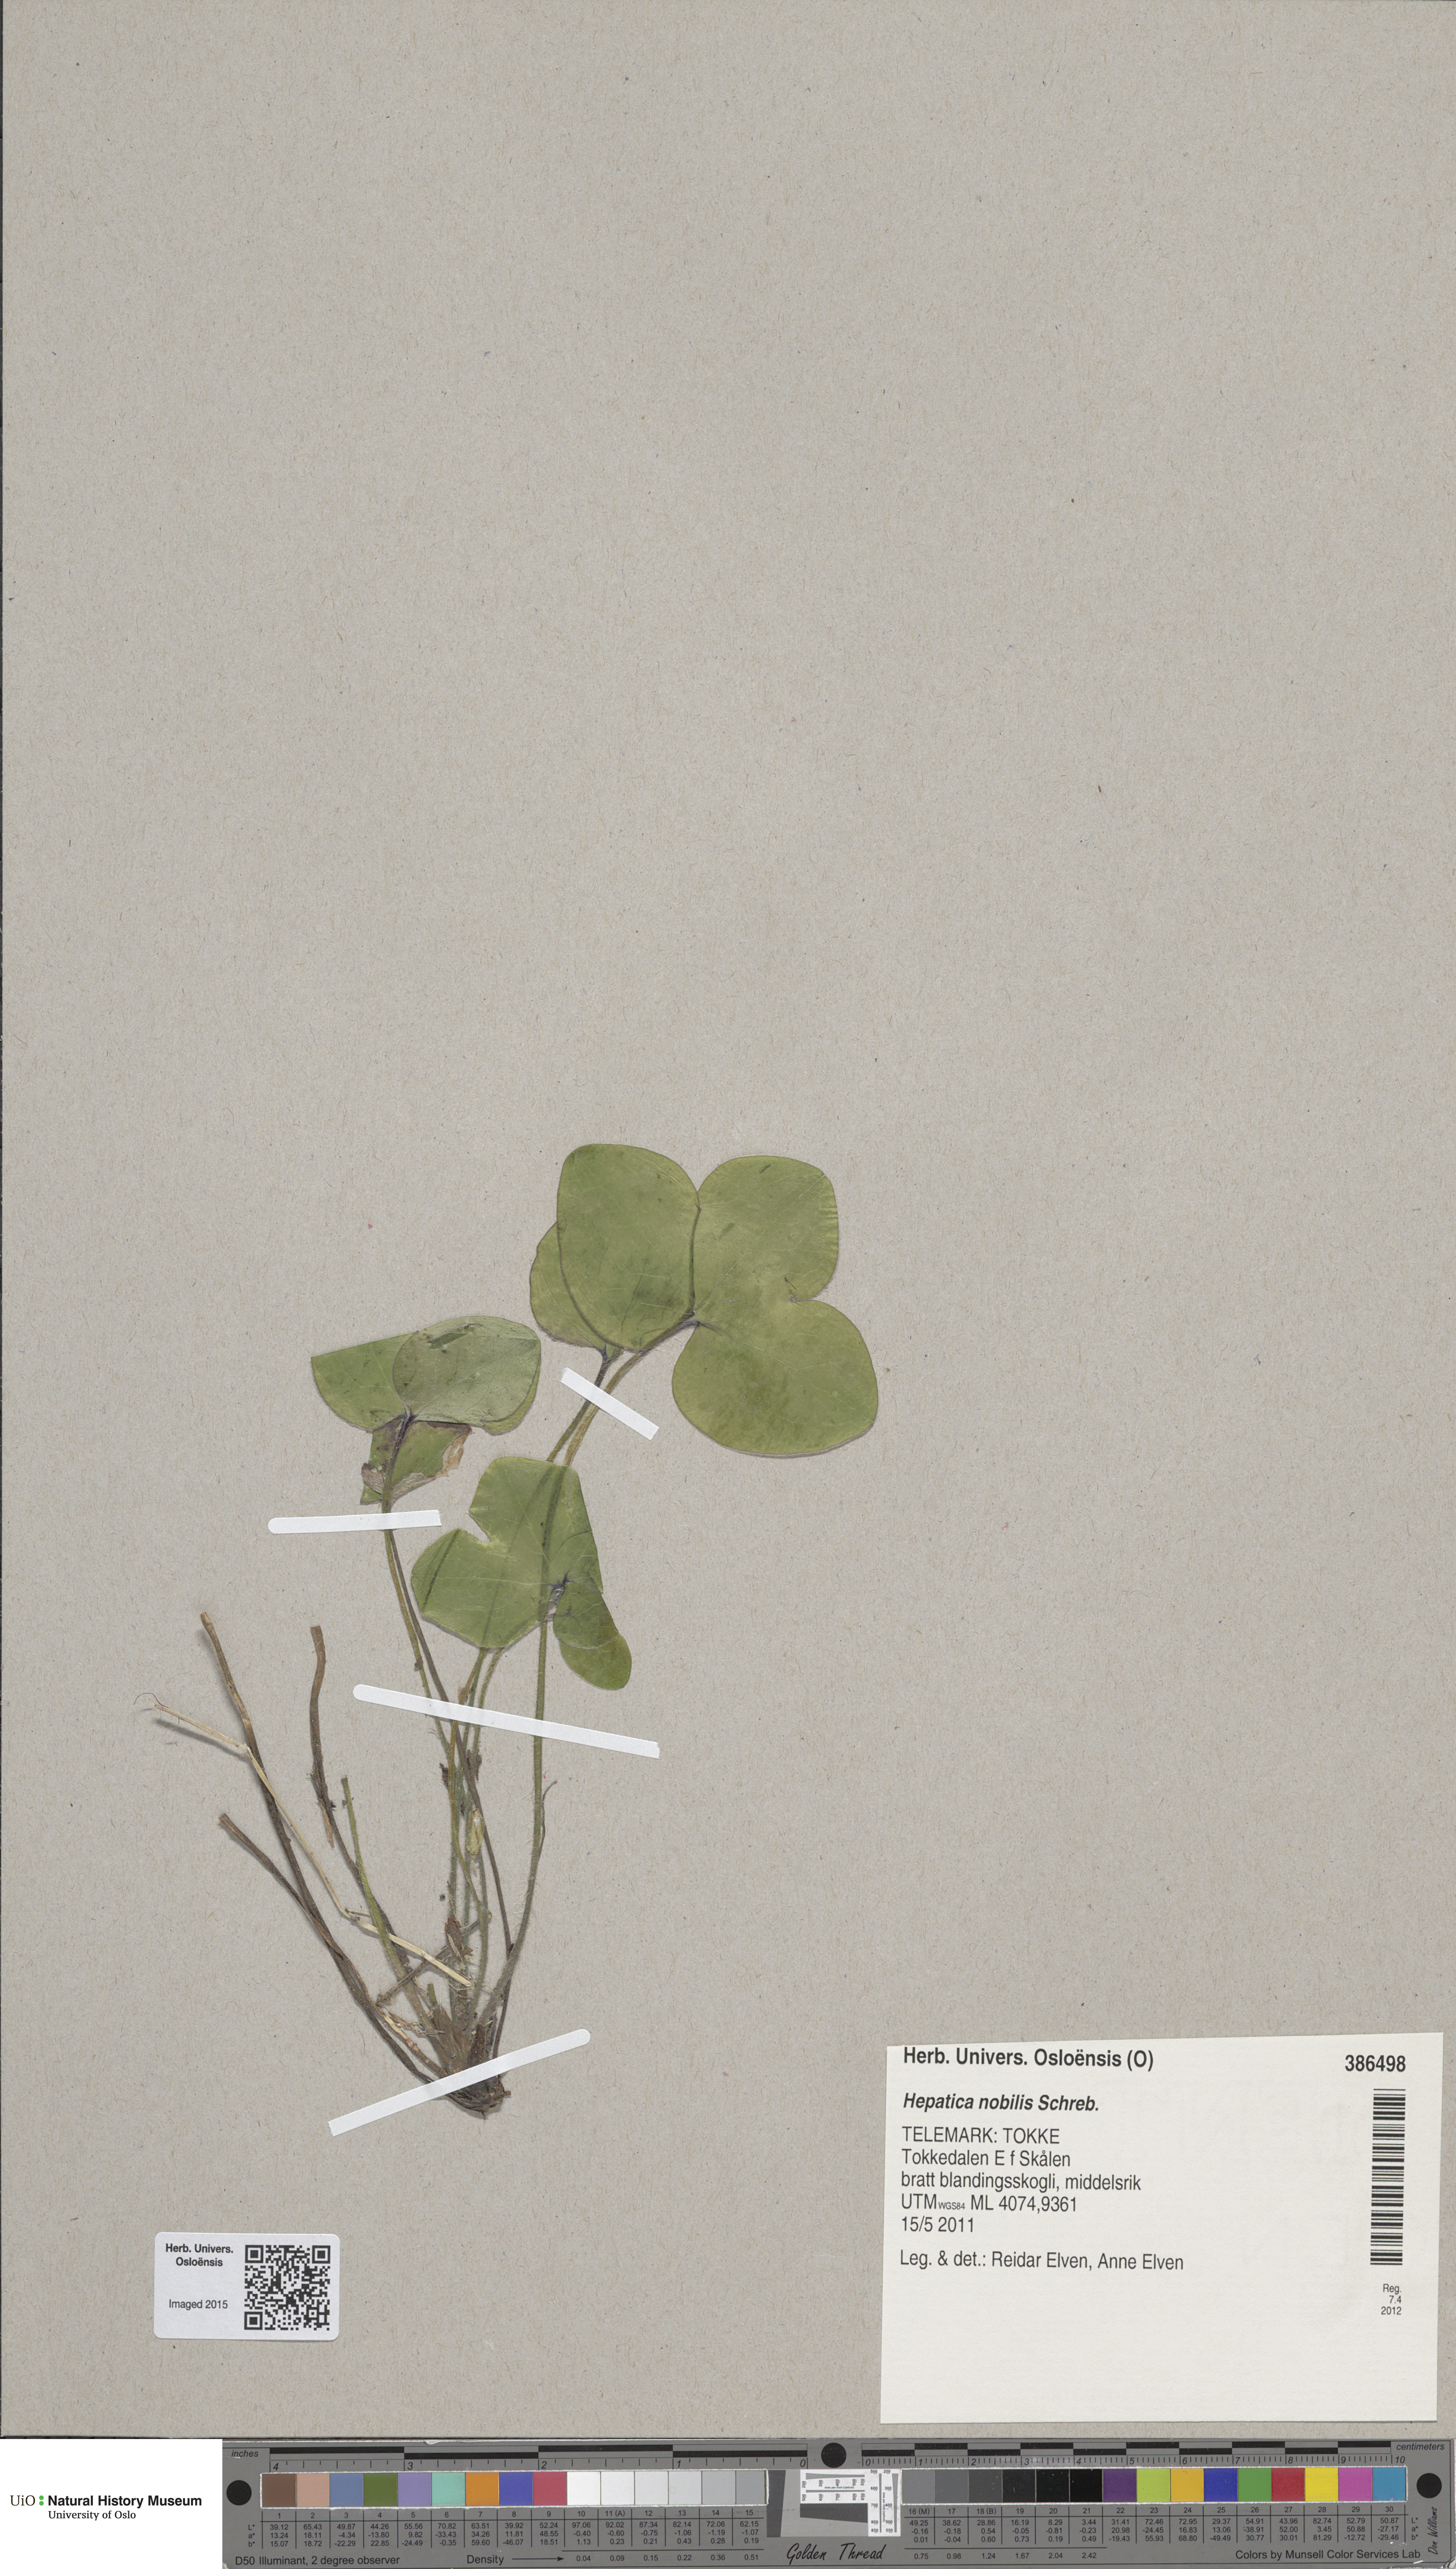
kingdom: Plantae
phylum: Tracheophyta
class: Magnoliopsida
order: Ranunculales
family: Ranunculaceae
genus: Hepatica
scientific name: Hepatica nobilis
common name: Liverleaf
